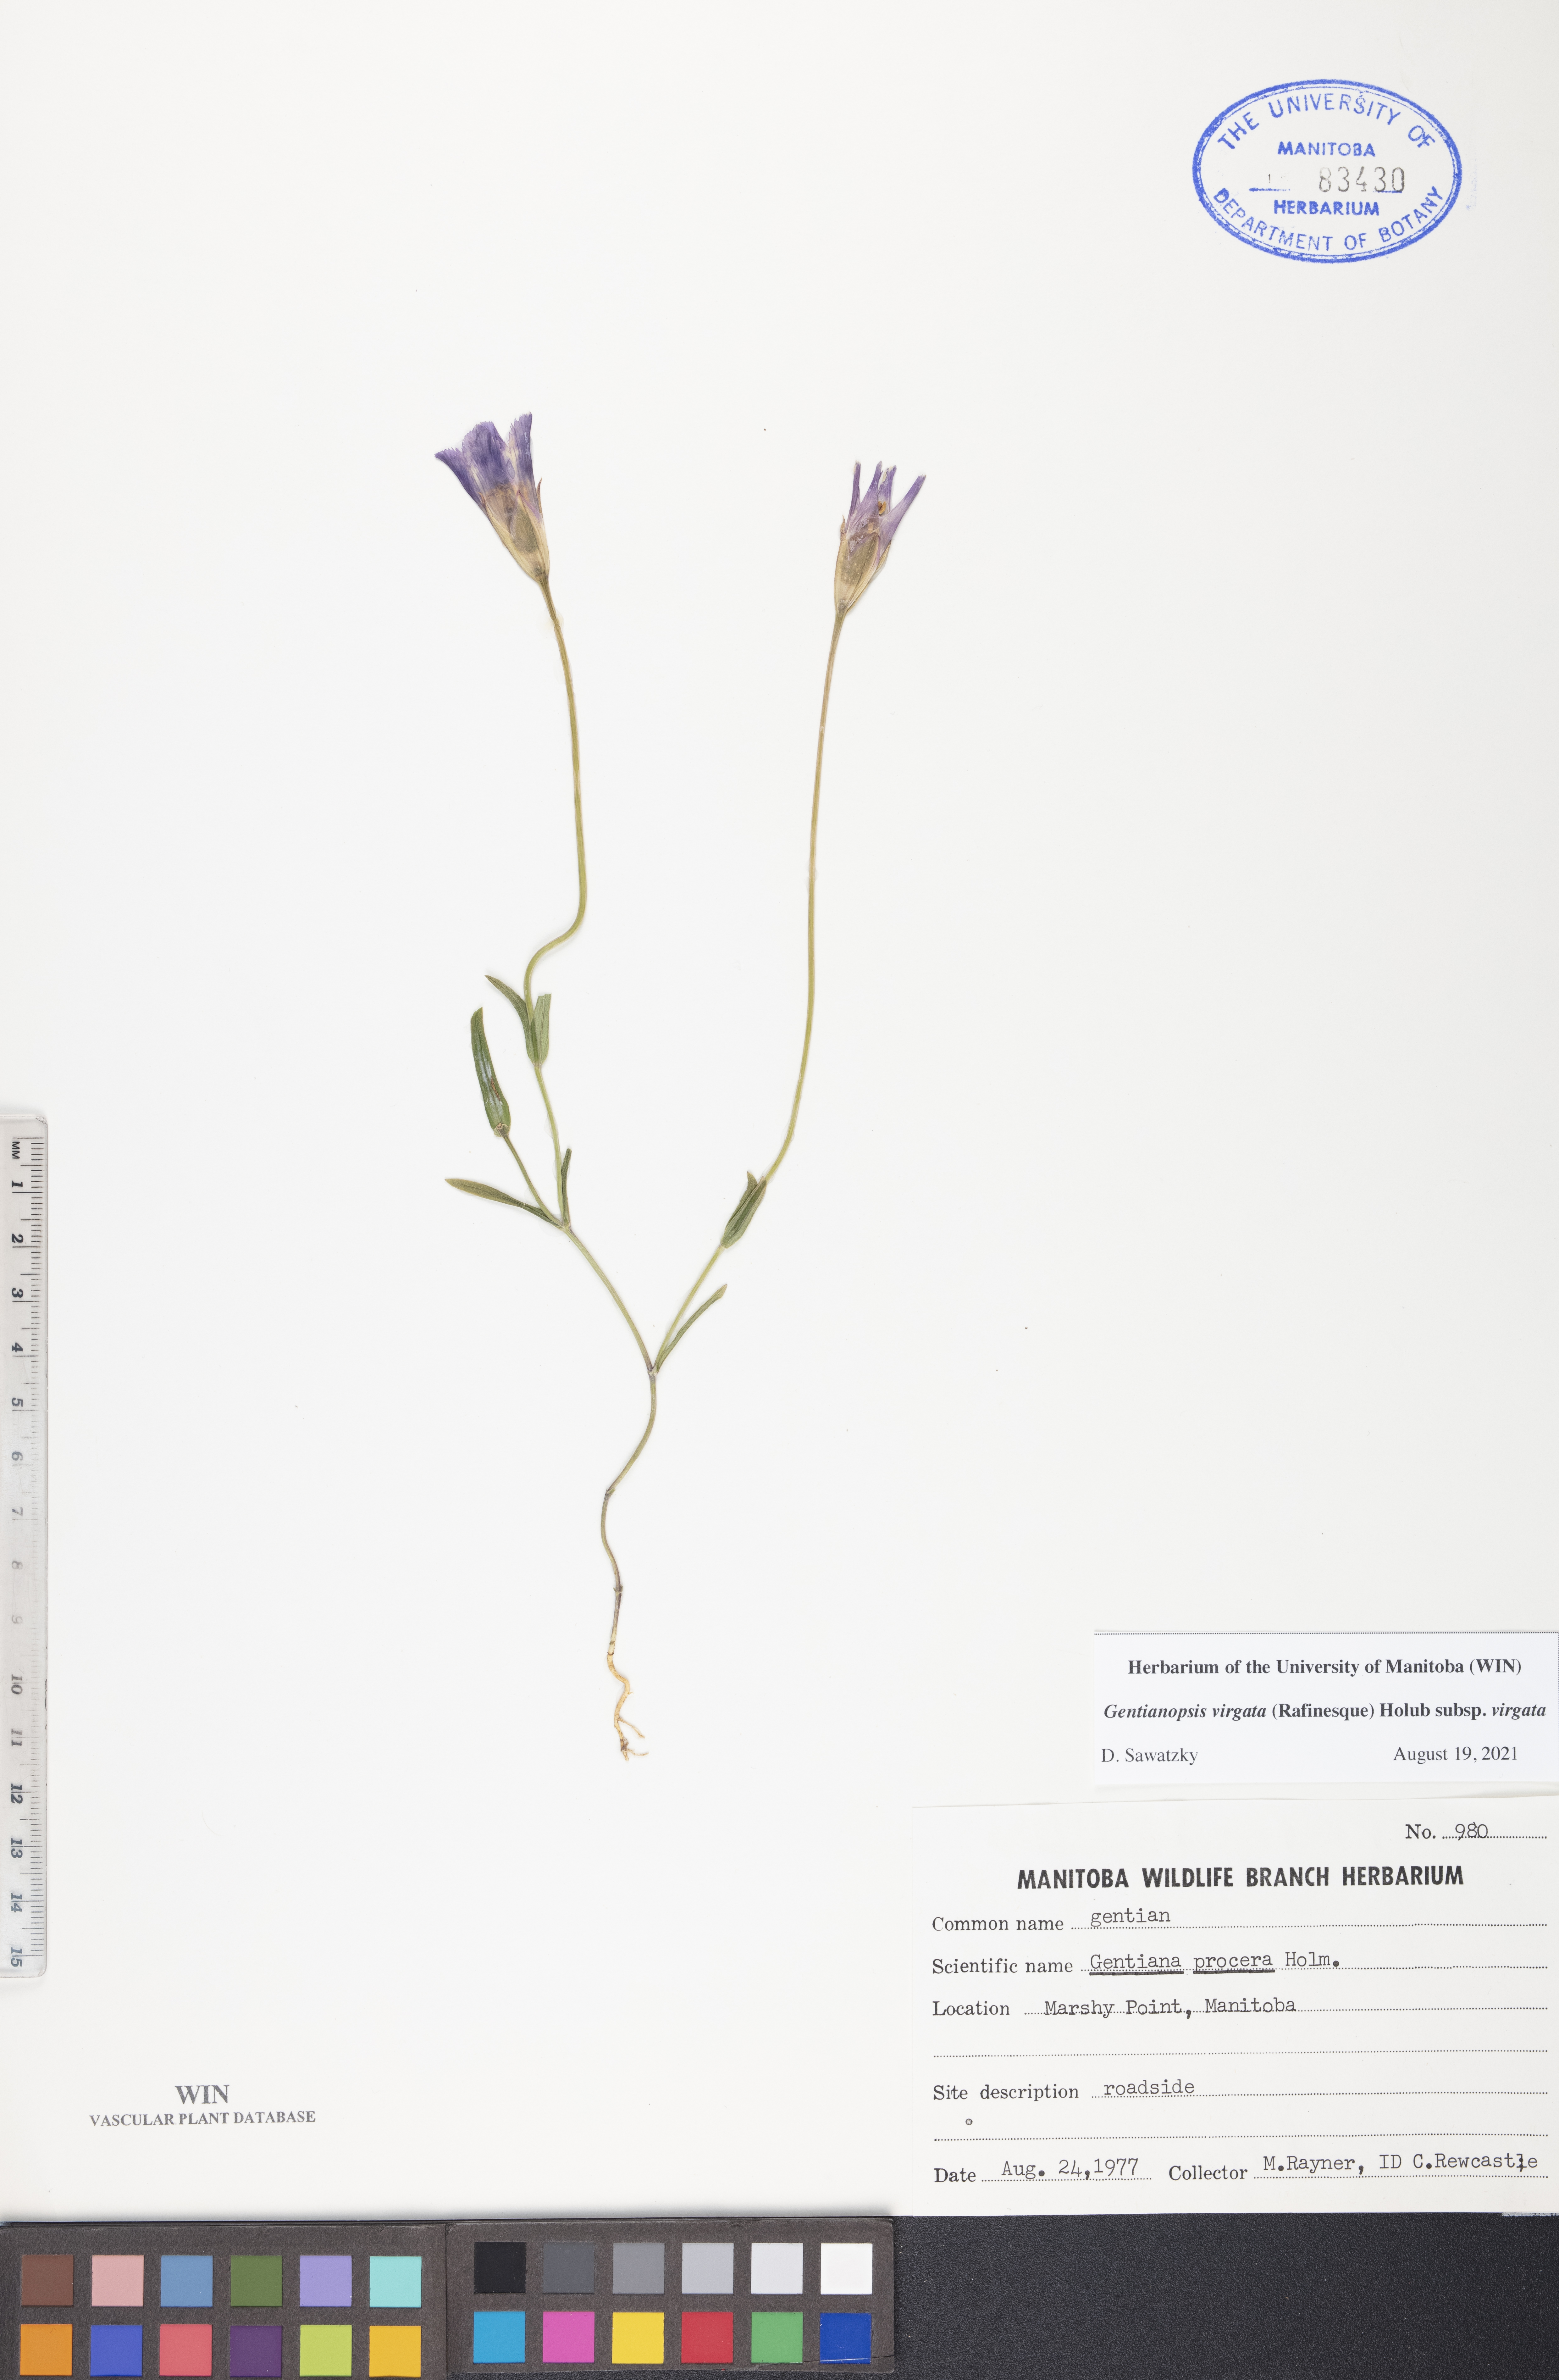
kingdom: Plantae
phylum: Tracheophyta
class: Magnoliopsida
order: Gentianales
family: Gentianaceae
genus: Gentianopsis
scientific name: Gentianopsis virgata
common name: Lesser fringed-gentian
